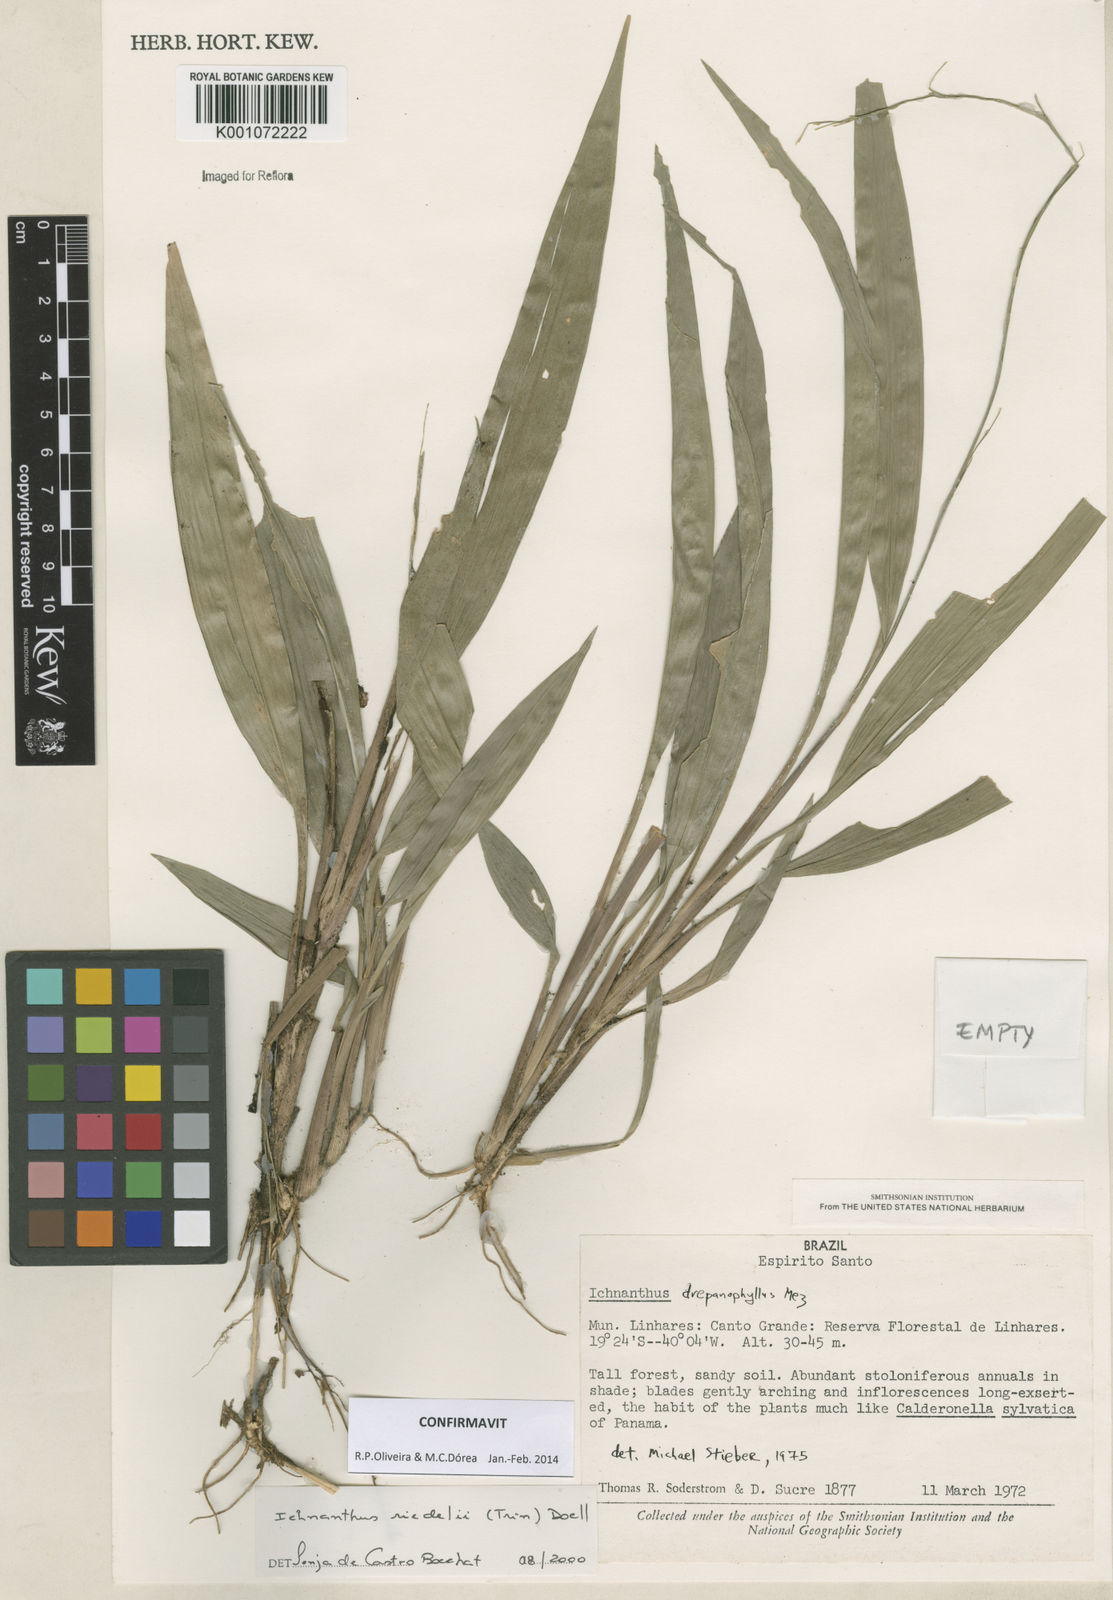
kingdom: Plantae
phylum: Tracheophyta
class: Liliopsida
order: Poales
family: Poaceae
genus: Ichnanthus
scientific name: Ichnanthus
